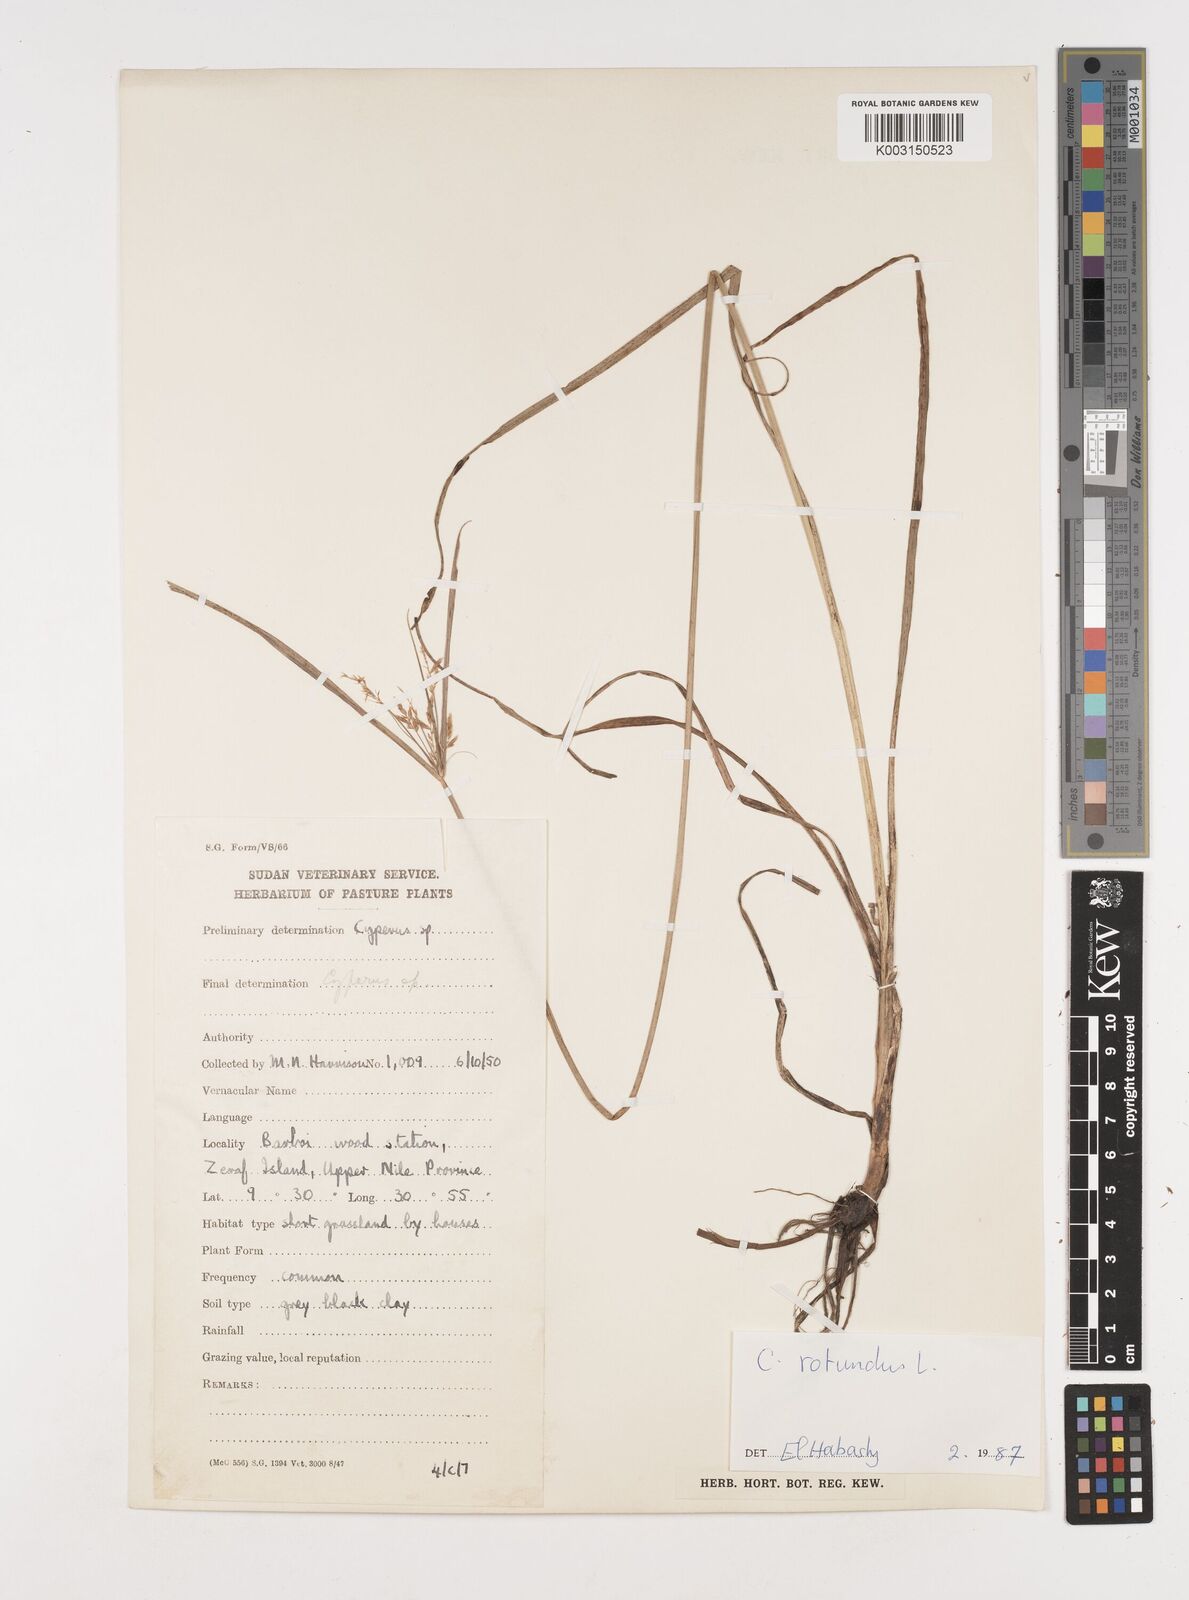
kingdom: Plantae
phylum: Tracheophyta
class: Liliopsida
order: Poales
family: Cyperaceae
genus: Cyperus
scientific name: Cyperus rotundus
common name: Nutgrass
